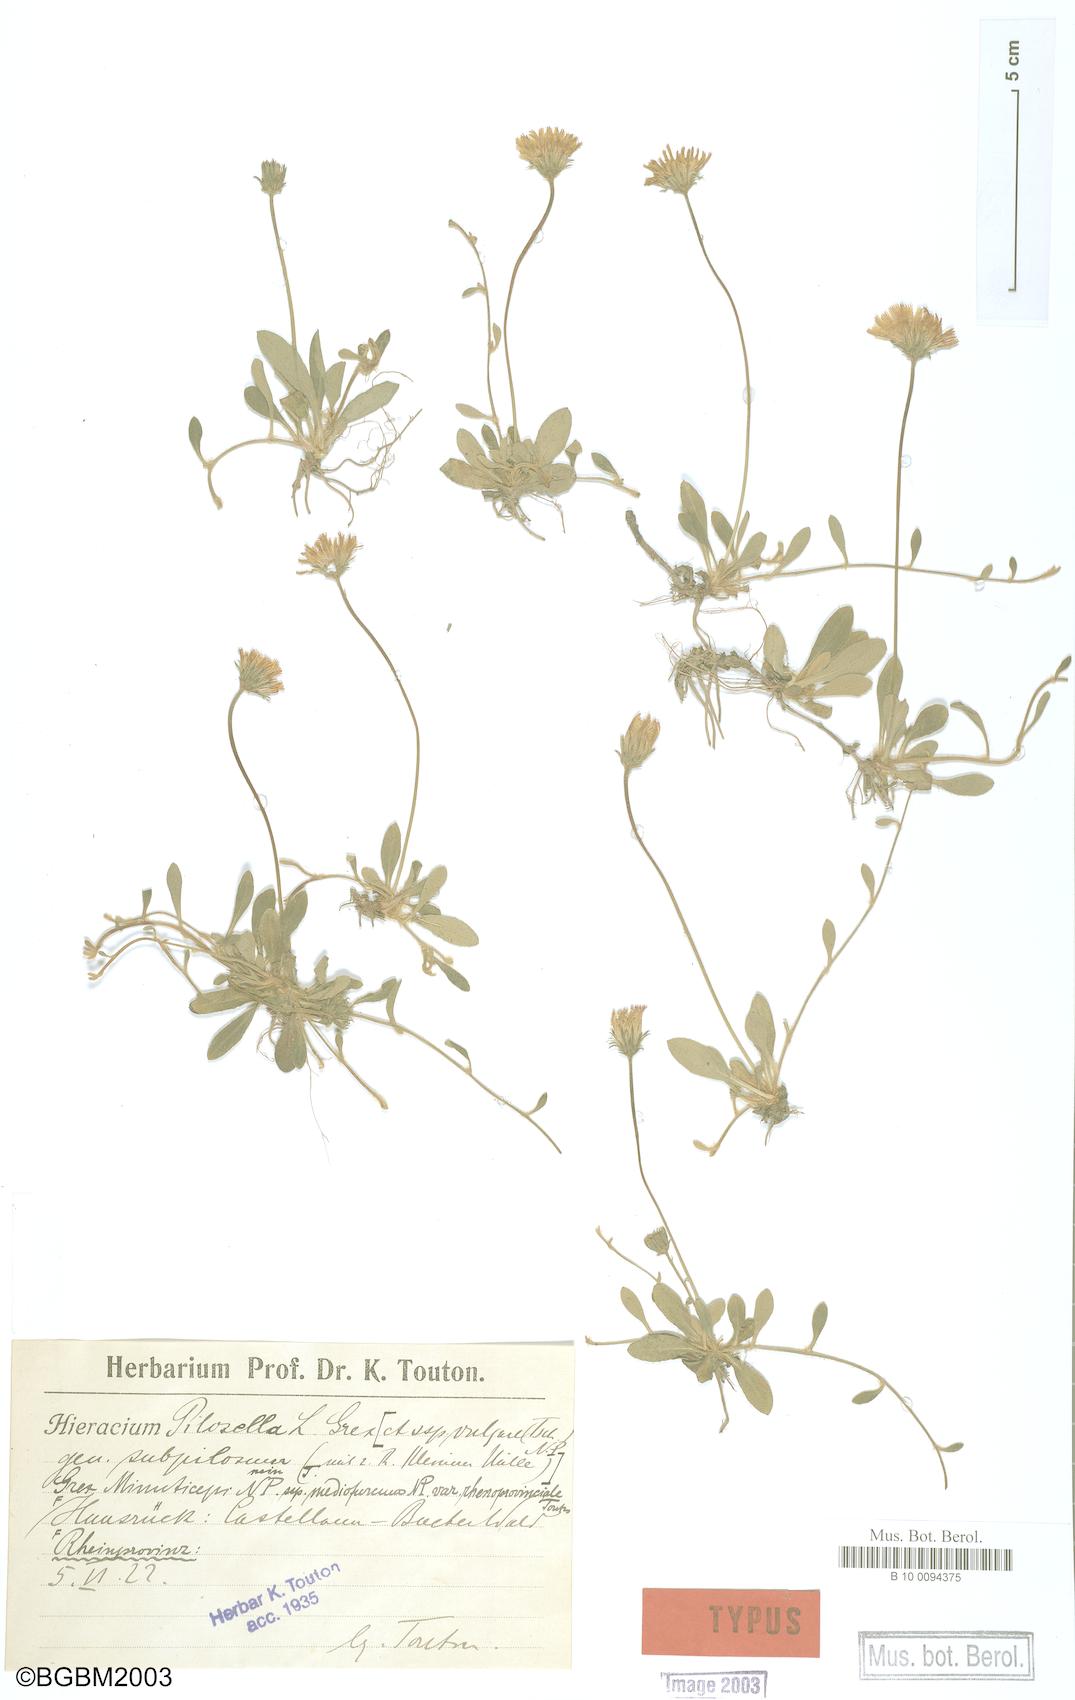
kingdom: Plantae
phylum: Tracheophyta
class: Magnoliopsida
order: Asterales
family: Asteraceae
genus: Pilosella
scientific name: Pilosella officinarum
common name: Mouse-ear hawkweed
